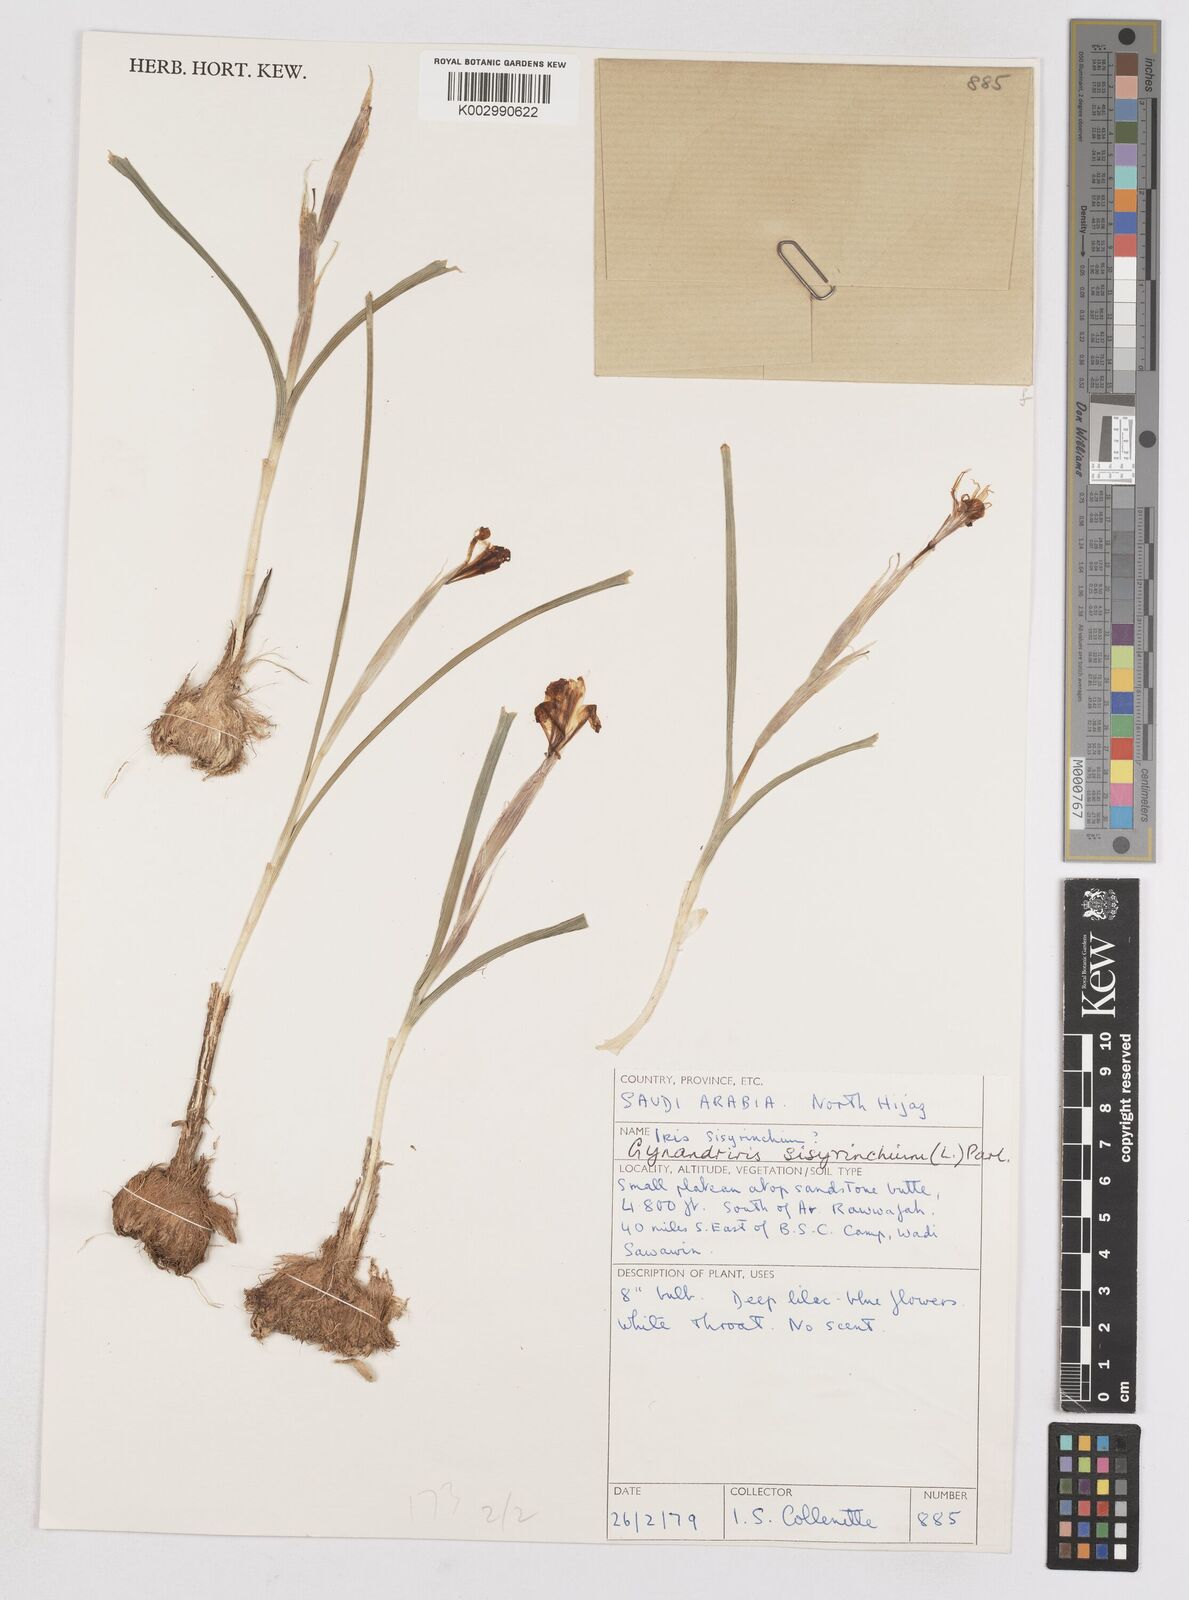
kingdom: Plantae
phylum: Tracheophyta
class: Liliopsida
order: Asparagales
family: Iridaceae
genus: Moraea
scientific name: Moraea sisyrinchium
